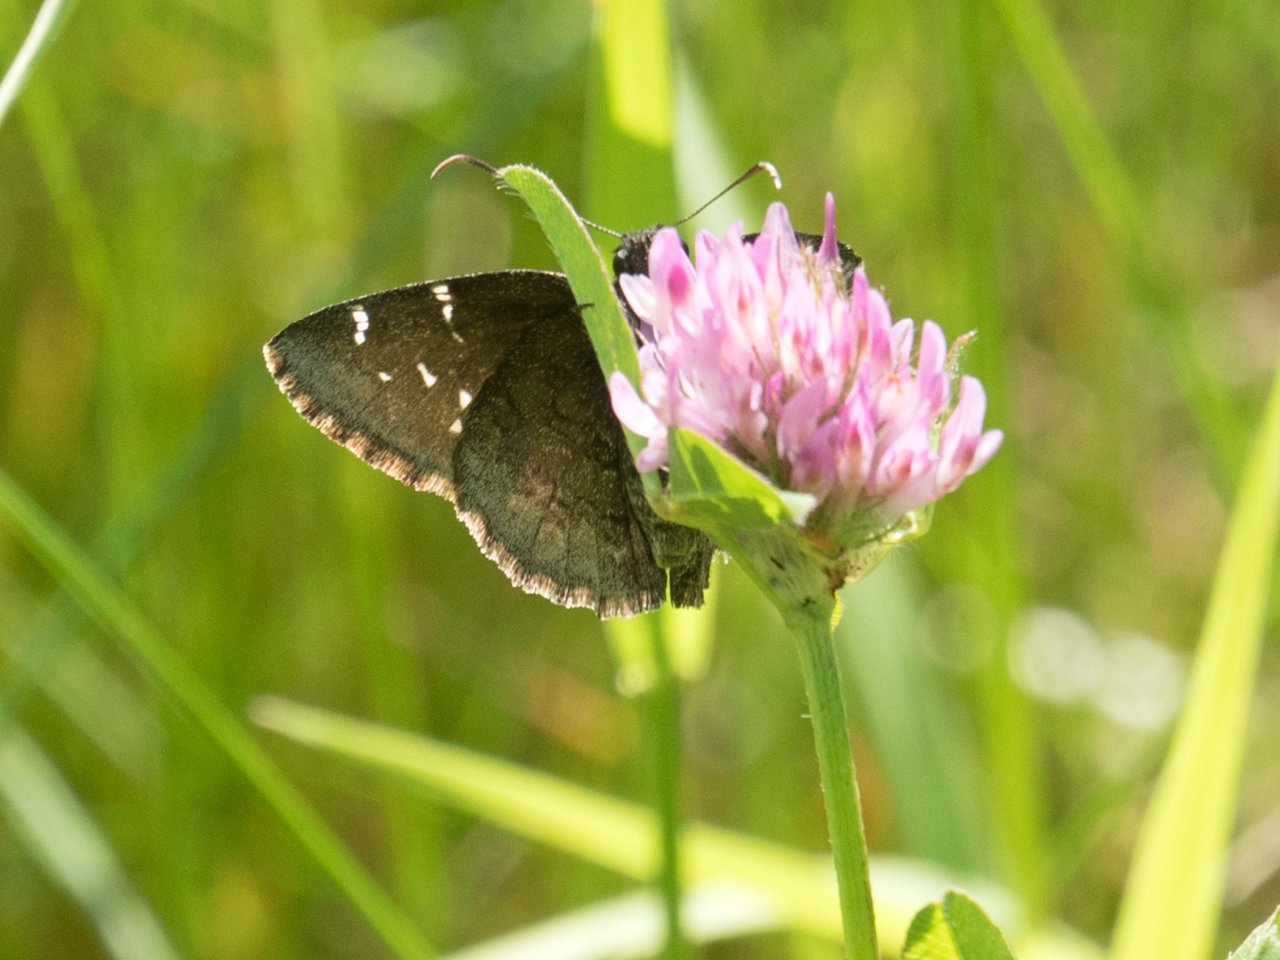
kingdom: Animalia
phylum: Arthropoda
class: Insecta
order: Lepidoptera
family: Hesperiidae
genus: Autochton
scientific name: Autochton
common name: Northern Cloudywing
